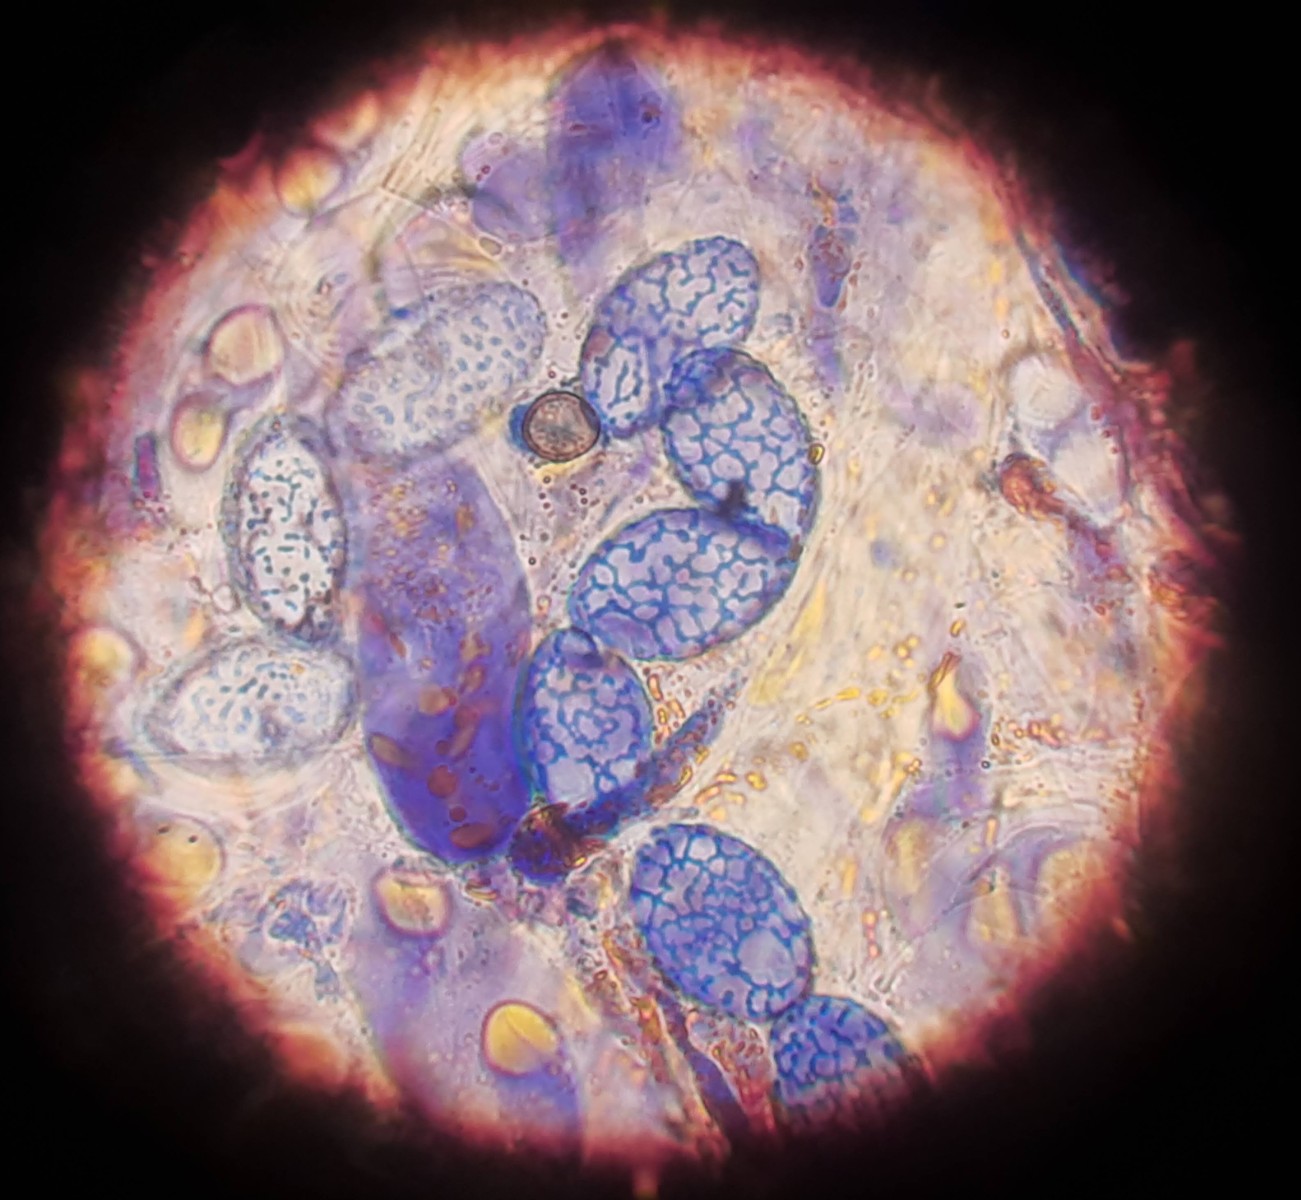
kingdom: Fungi
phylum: Ascomycota
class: Pezizomycetes
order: Pezizales
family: Pyronemataceae
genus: Neottiella
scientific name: Neottiella rutilans
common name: jomfruhår-mosbæger
